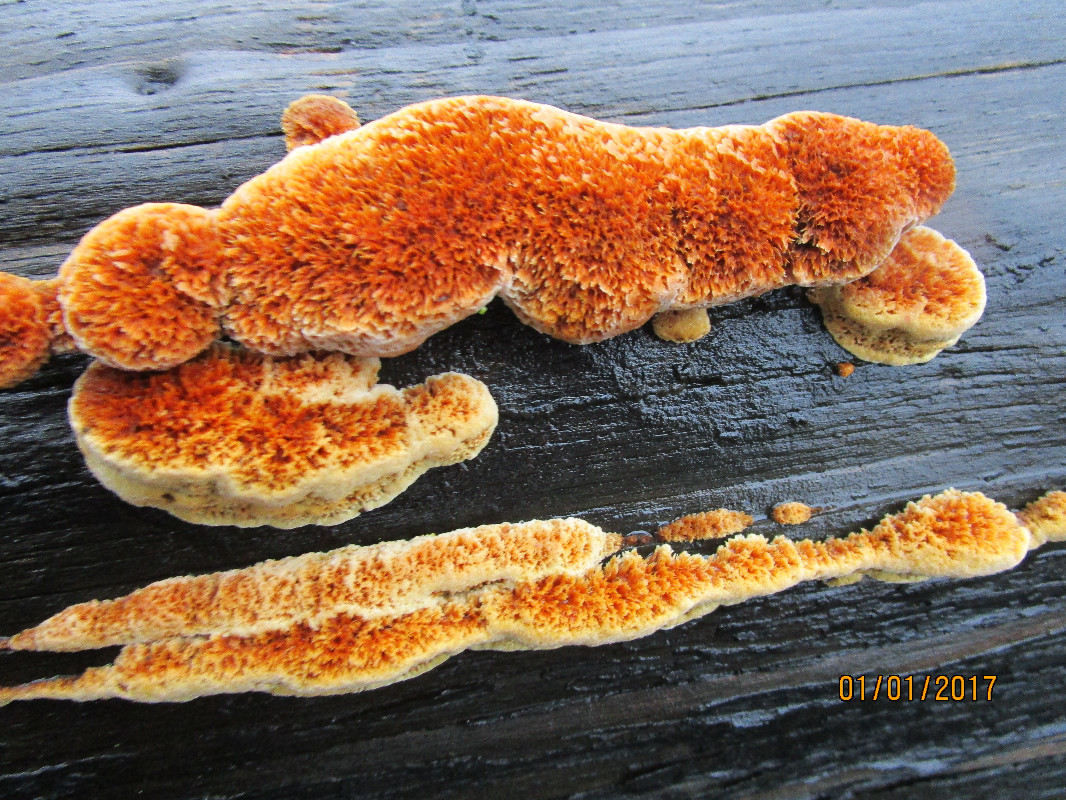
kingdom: Fungi
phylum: Basidiomycota
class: Agaricomycetes
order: Gloeophyllales
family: Gloeophyllaceae
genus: Gloeophyllum
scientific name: Gloeophyllum odoratum
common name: duftende korkhat
